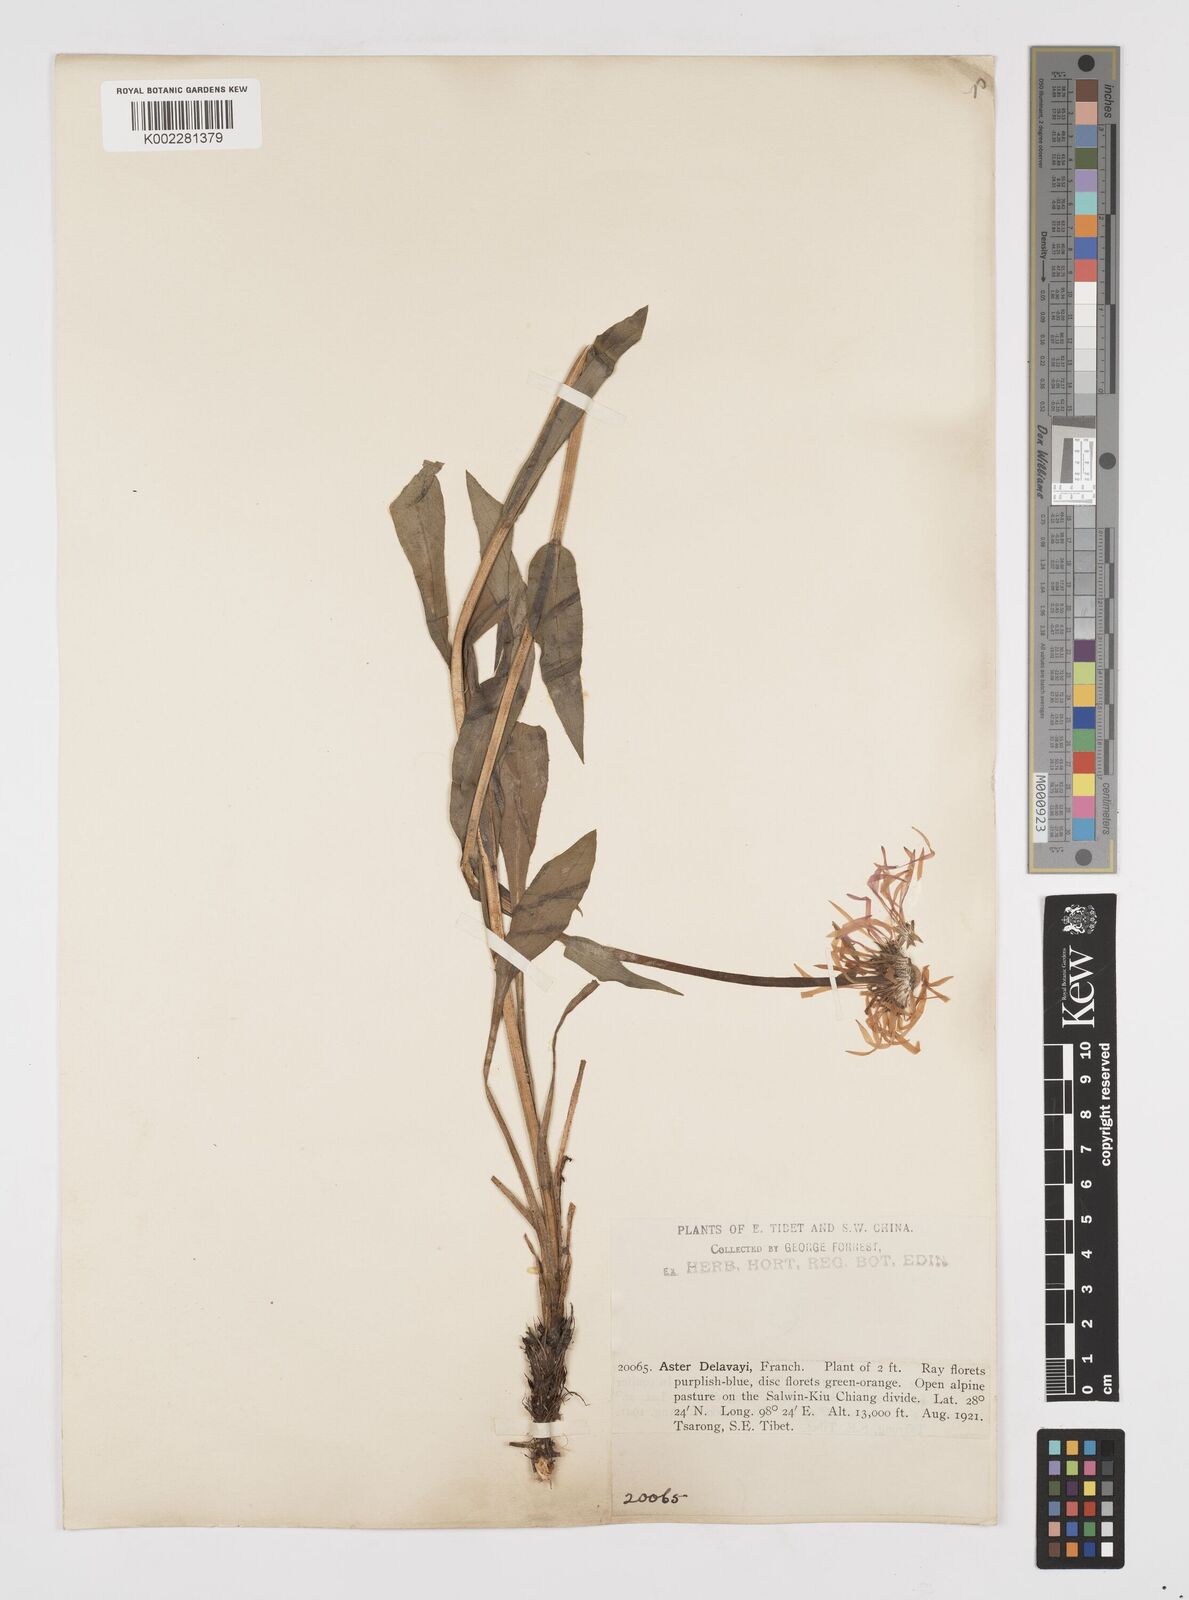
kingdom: Plantae
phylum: Tracheophyta
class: Magnoliopsida
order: Asterales
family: Asteraceae
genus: Tibetiodes
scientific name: Tibetiodes diplostephioides
